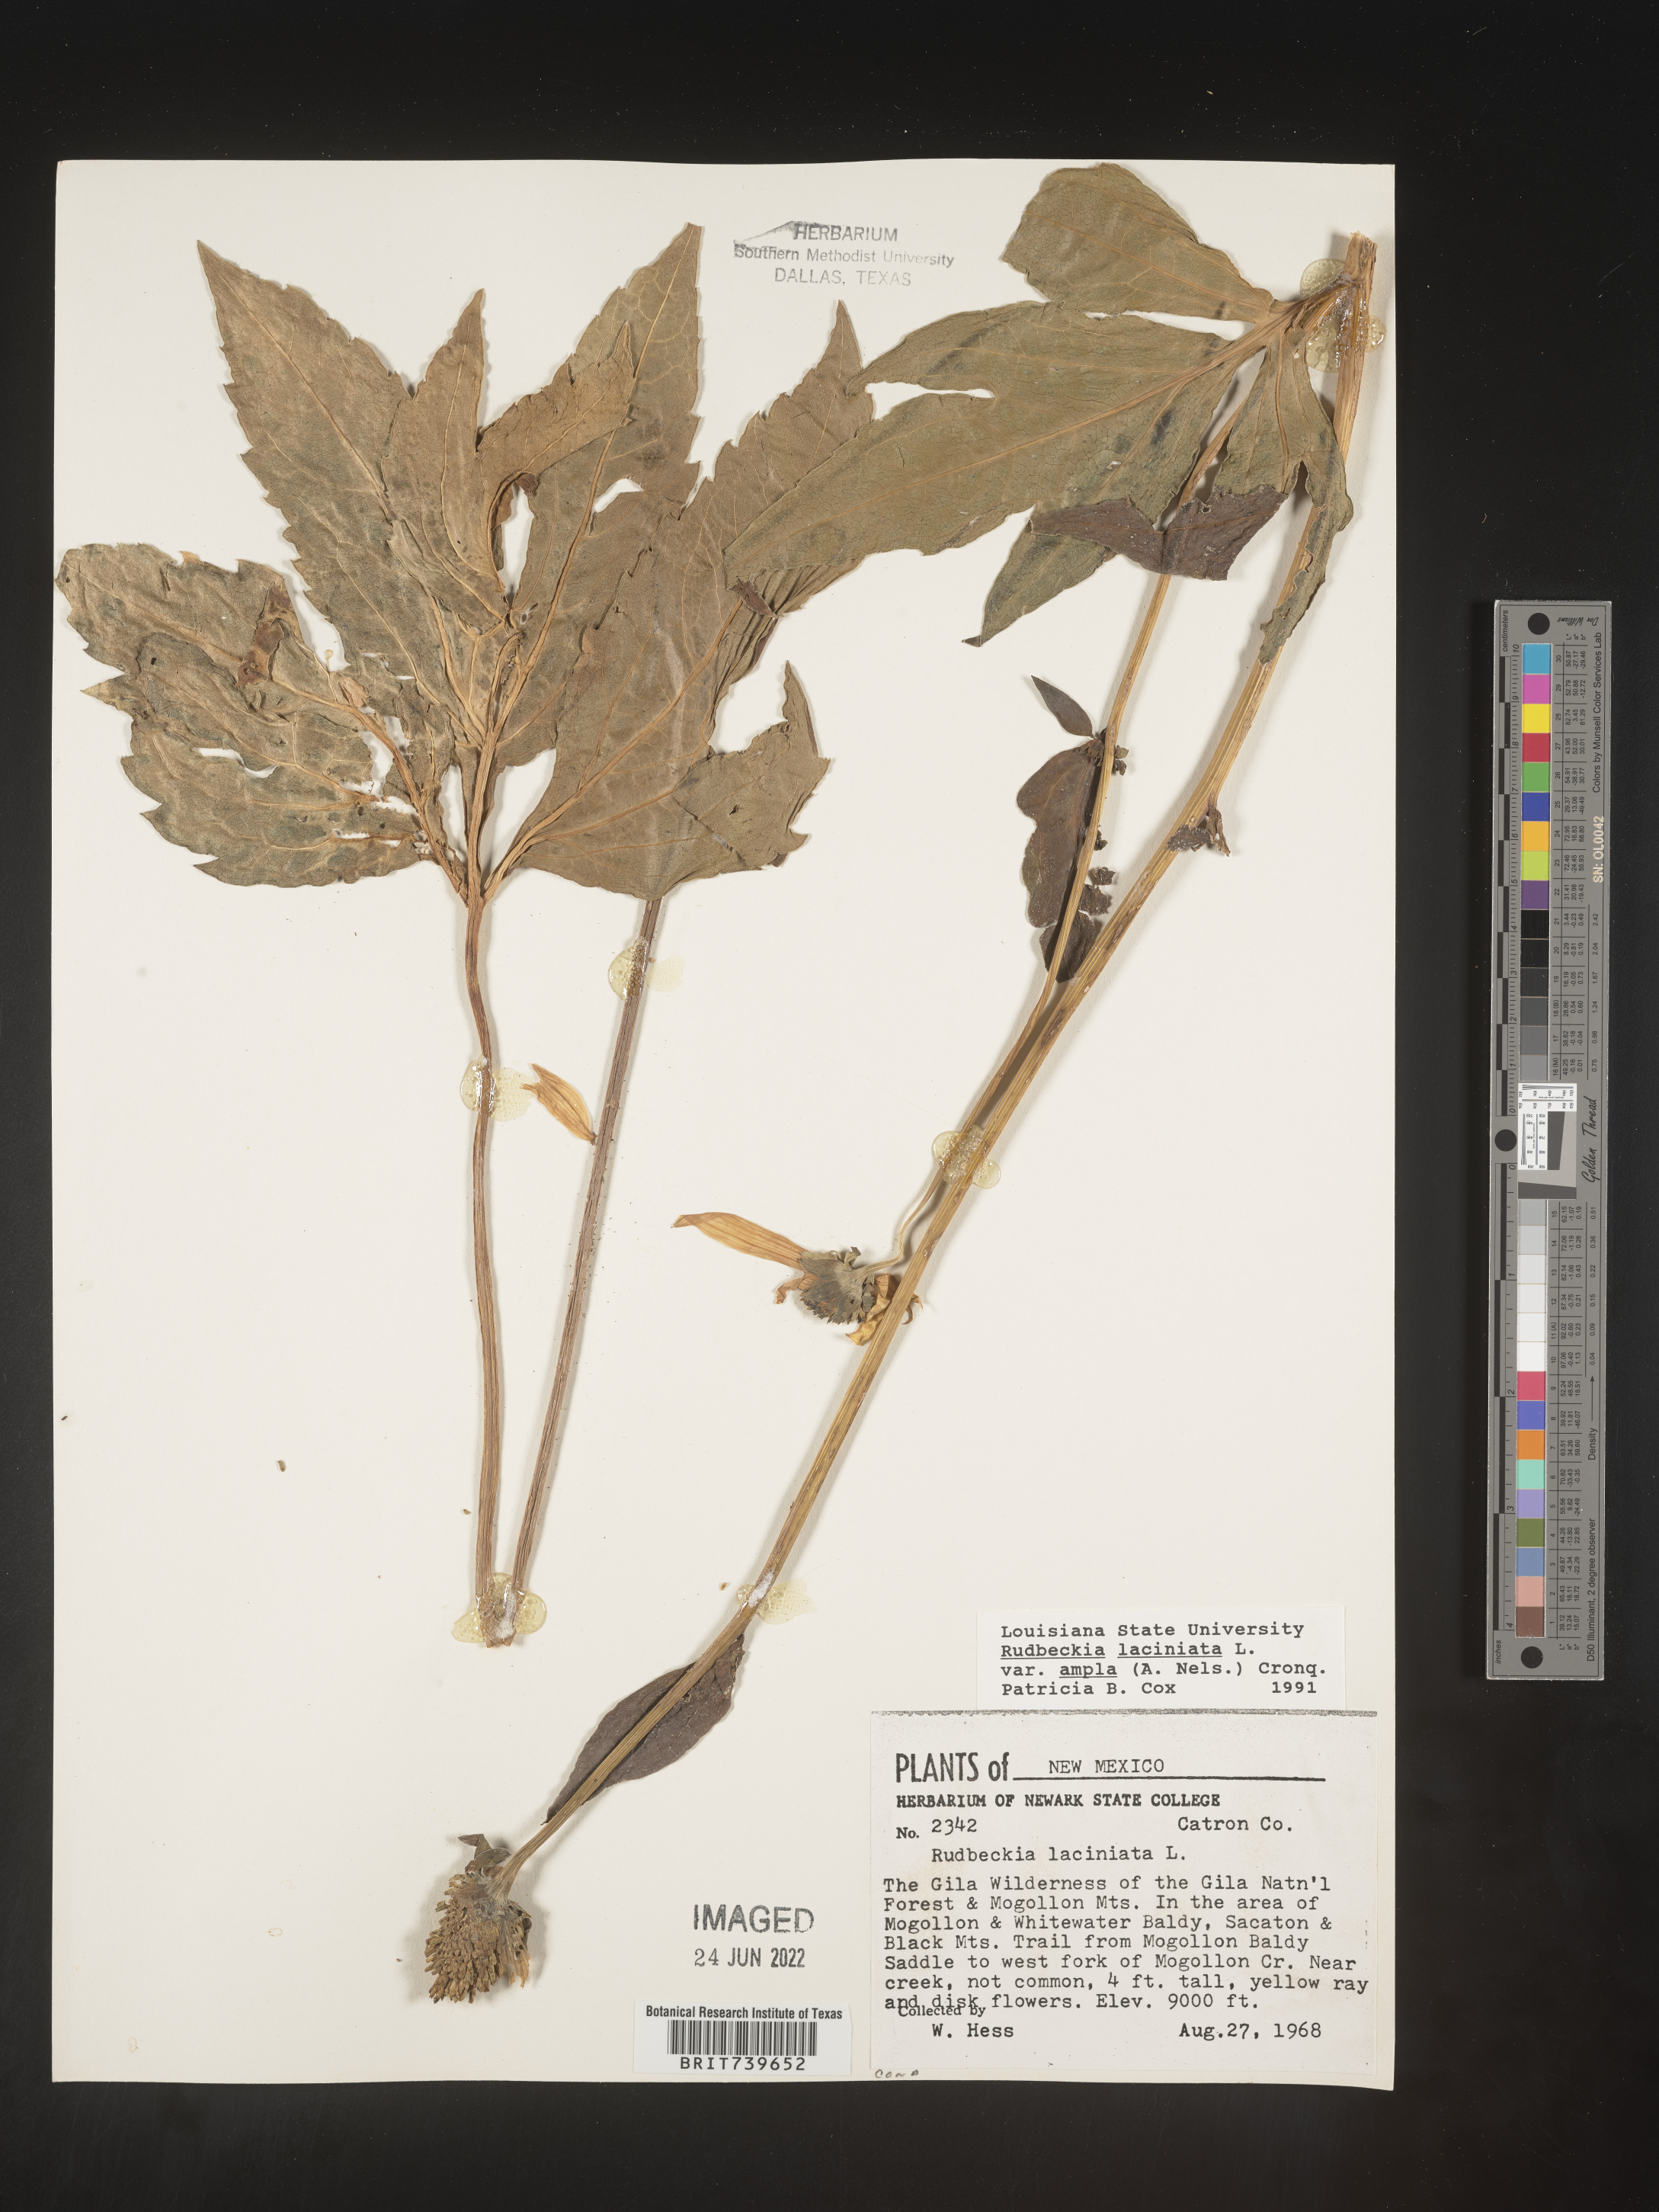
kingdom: Plantae
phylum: Tracheophyta
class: Magnoliopsida
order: Asterales
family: Asteraceae
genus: Rudbeckia
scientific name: Rudbeckia laciniata
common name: Coneflower
